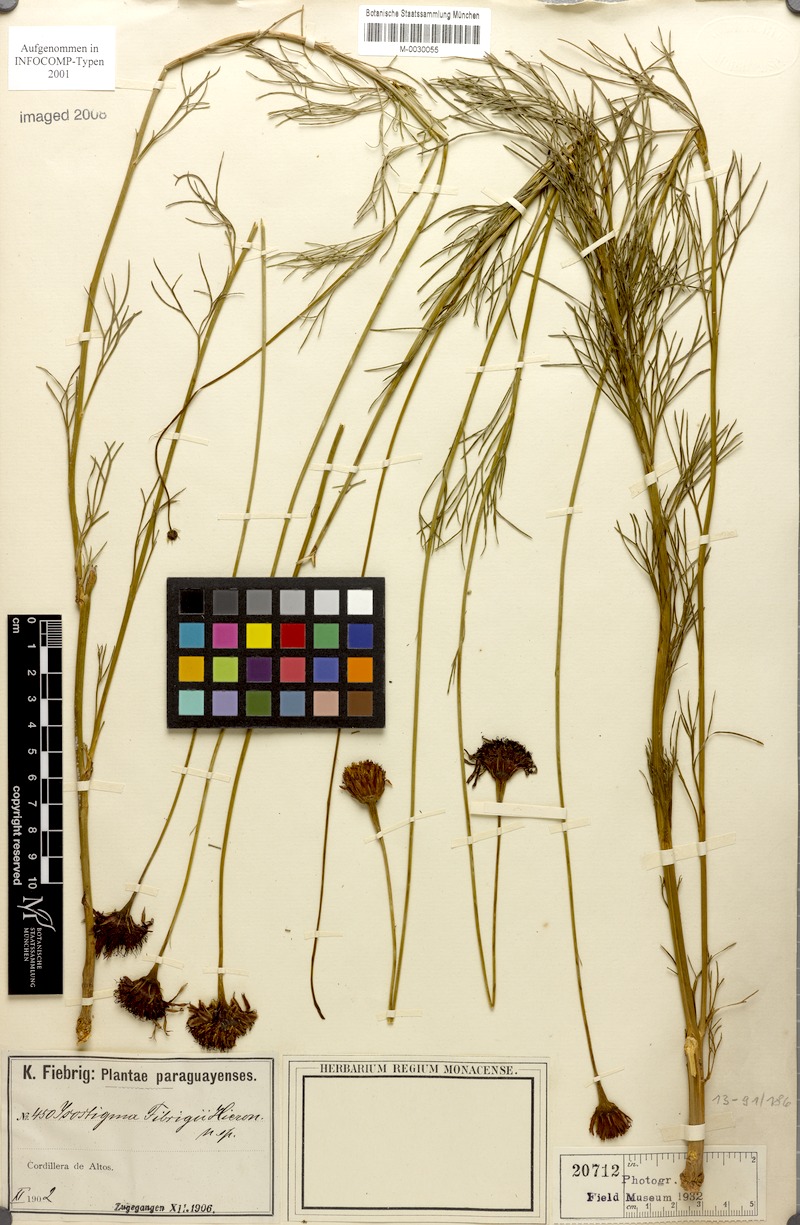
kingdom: Plantae
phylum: Tracheophyta
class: Magnoliopsida
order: Asterales
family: Asteraceae
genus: Isostigma
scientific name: Isostigma fiebrigii
